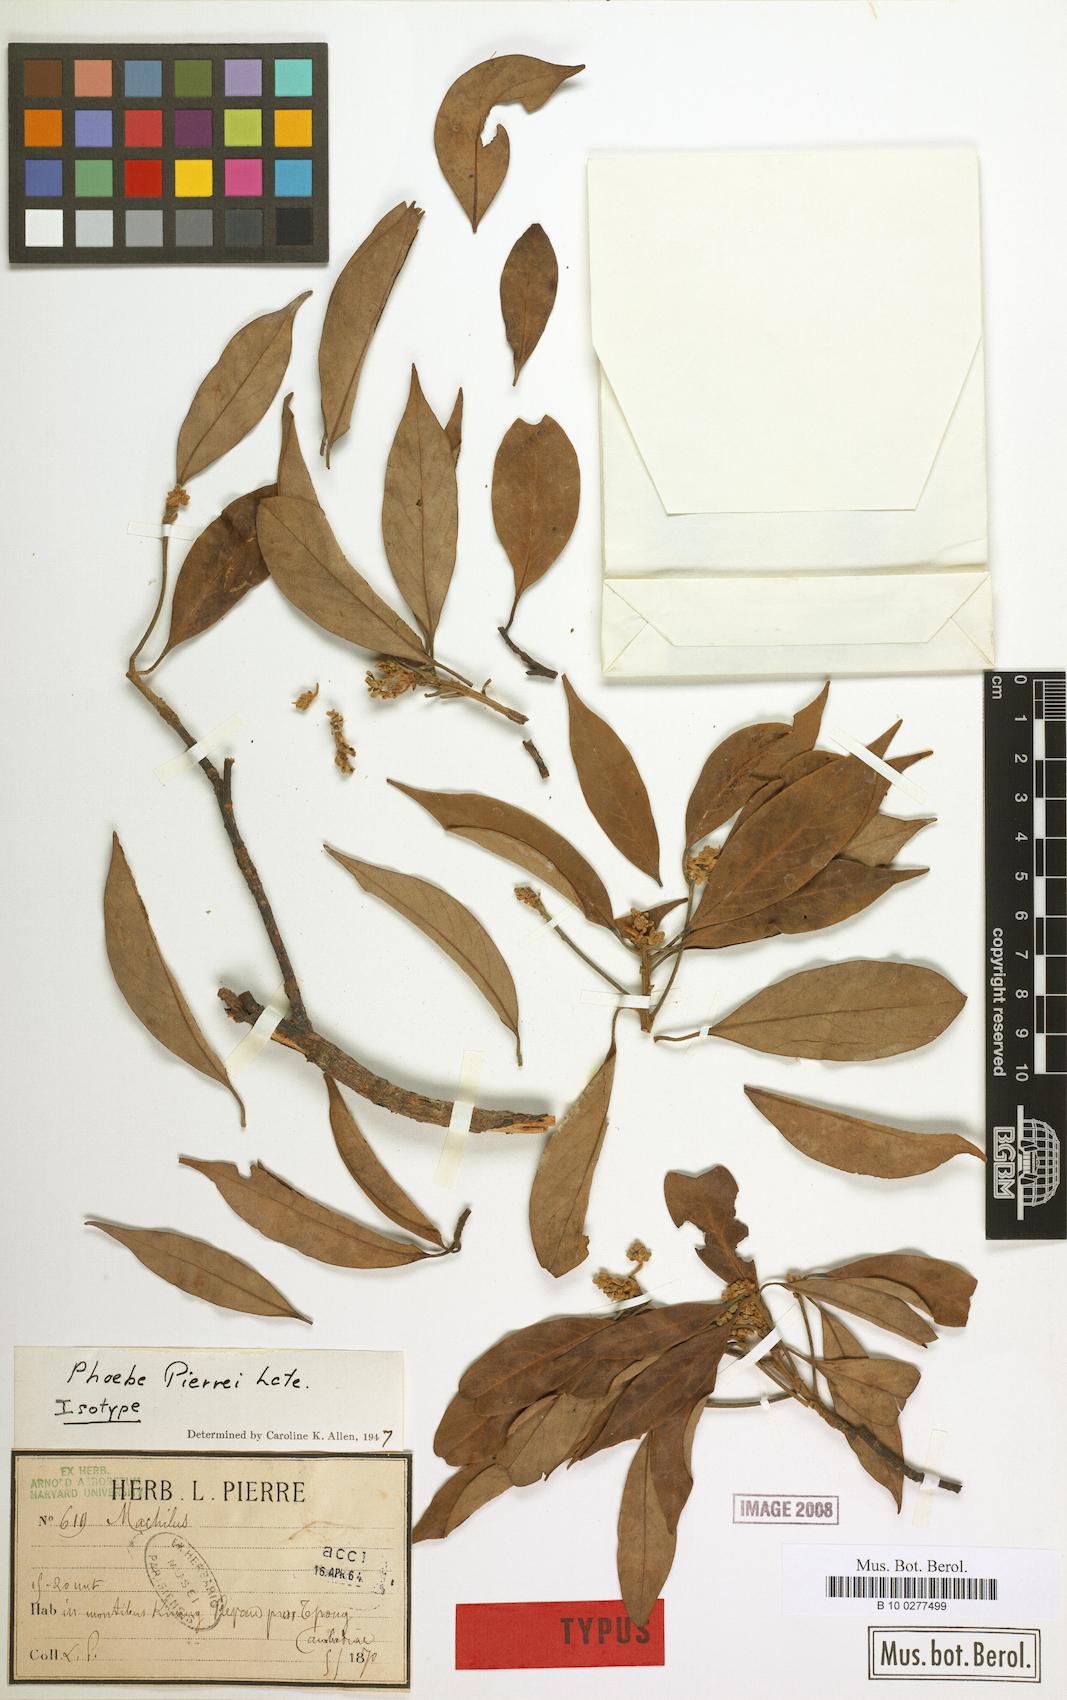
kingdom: Plantae
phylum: Tracheophyta
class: Magnoliopsida
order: Laurales
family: Lauraceae
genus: Phoebe
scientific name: Phoebe pierrei
